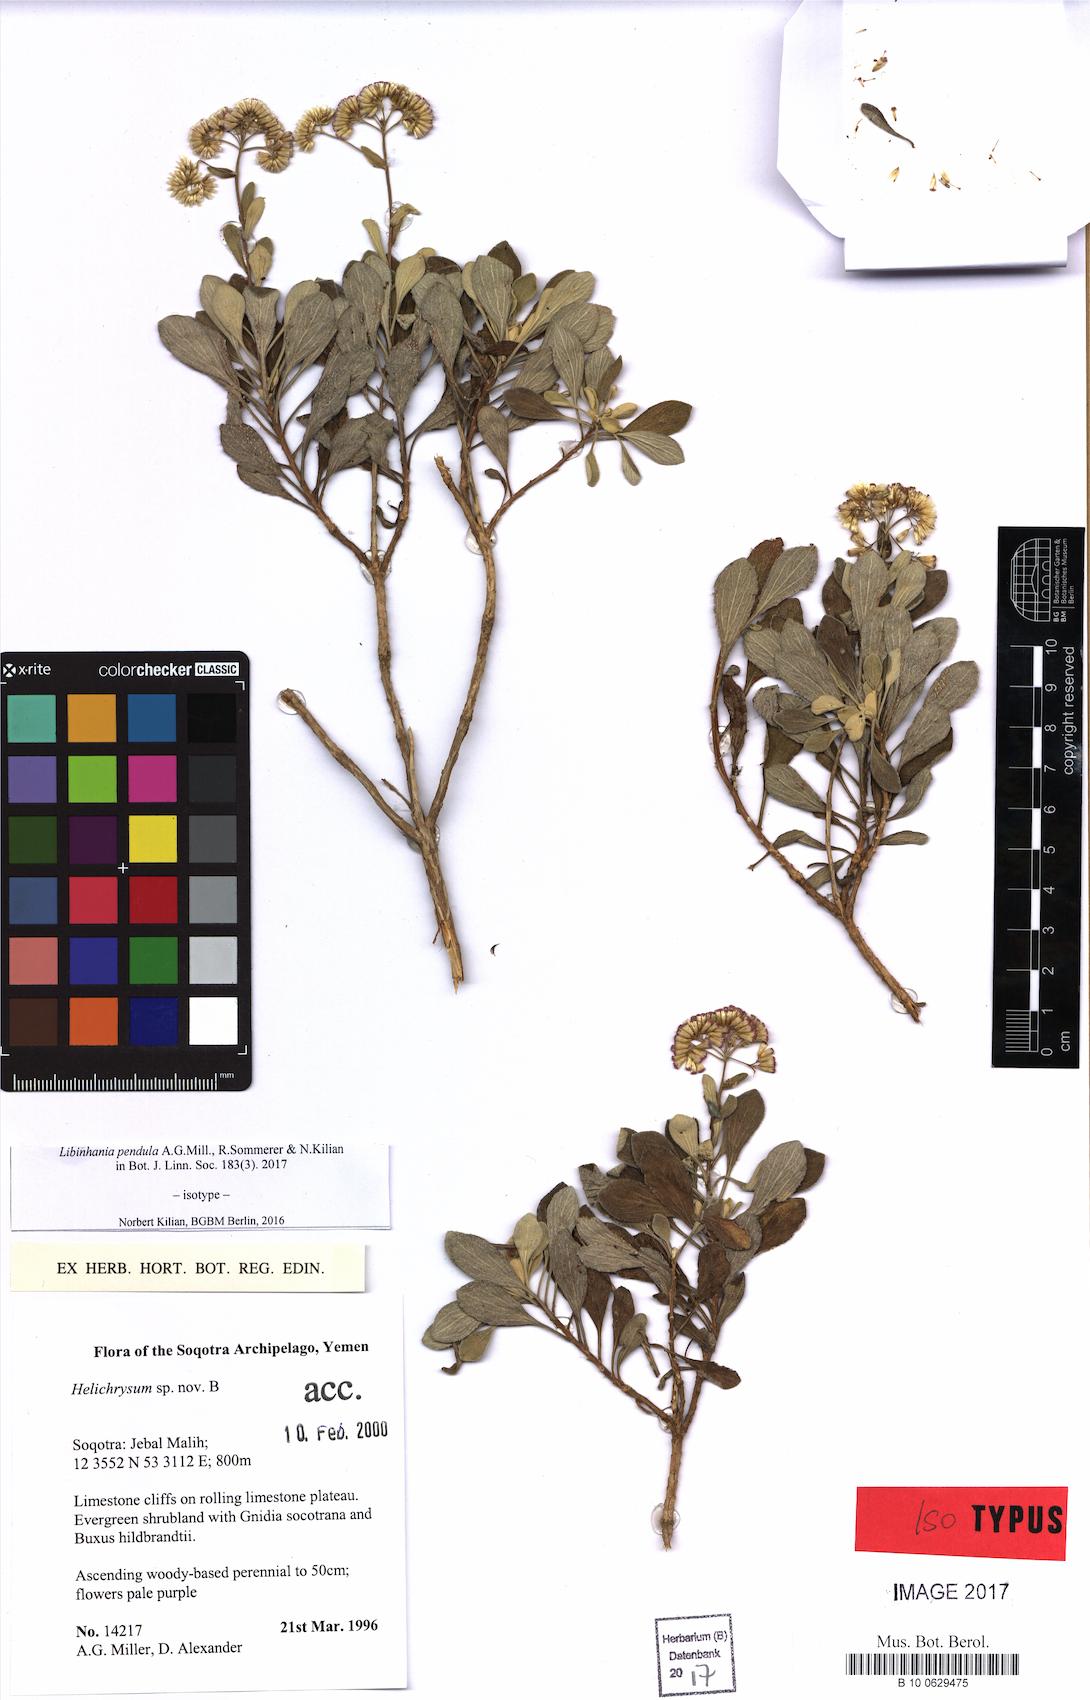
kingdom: Plantae
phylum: Tracheophyta
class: Magnoliopsida
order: Asterales
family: Asteraceae
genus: Libinhania
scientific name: Libinhania pendula
